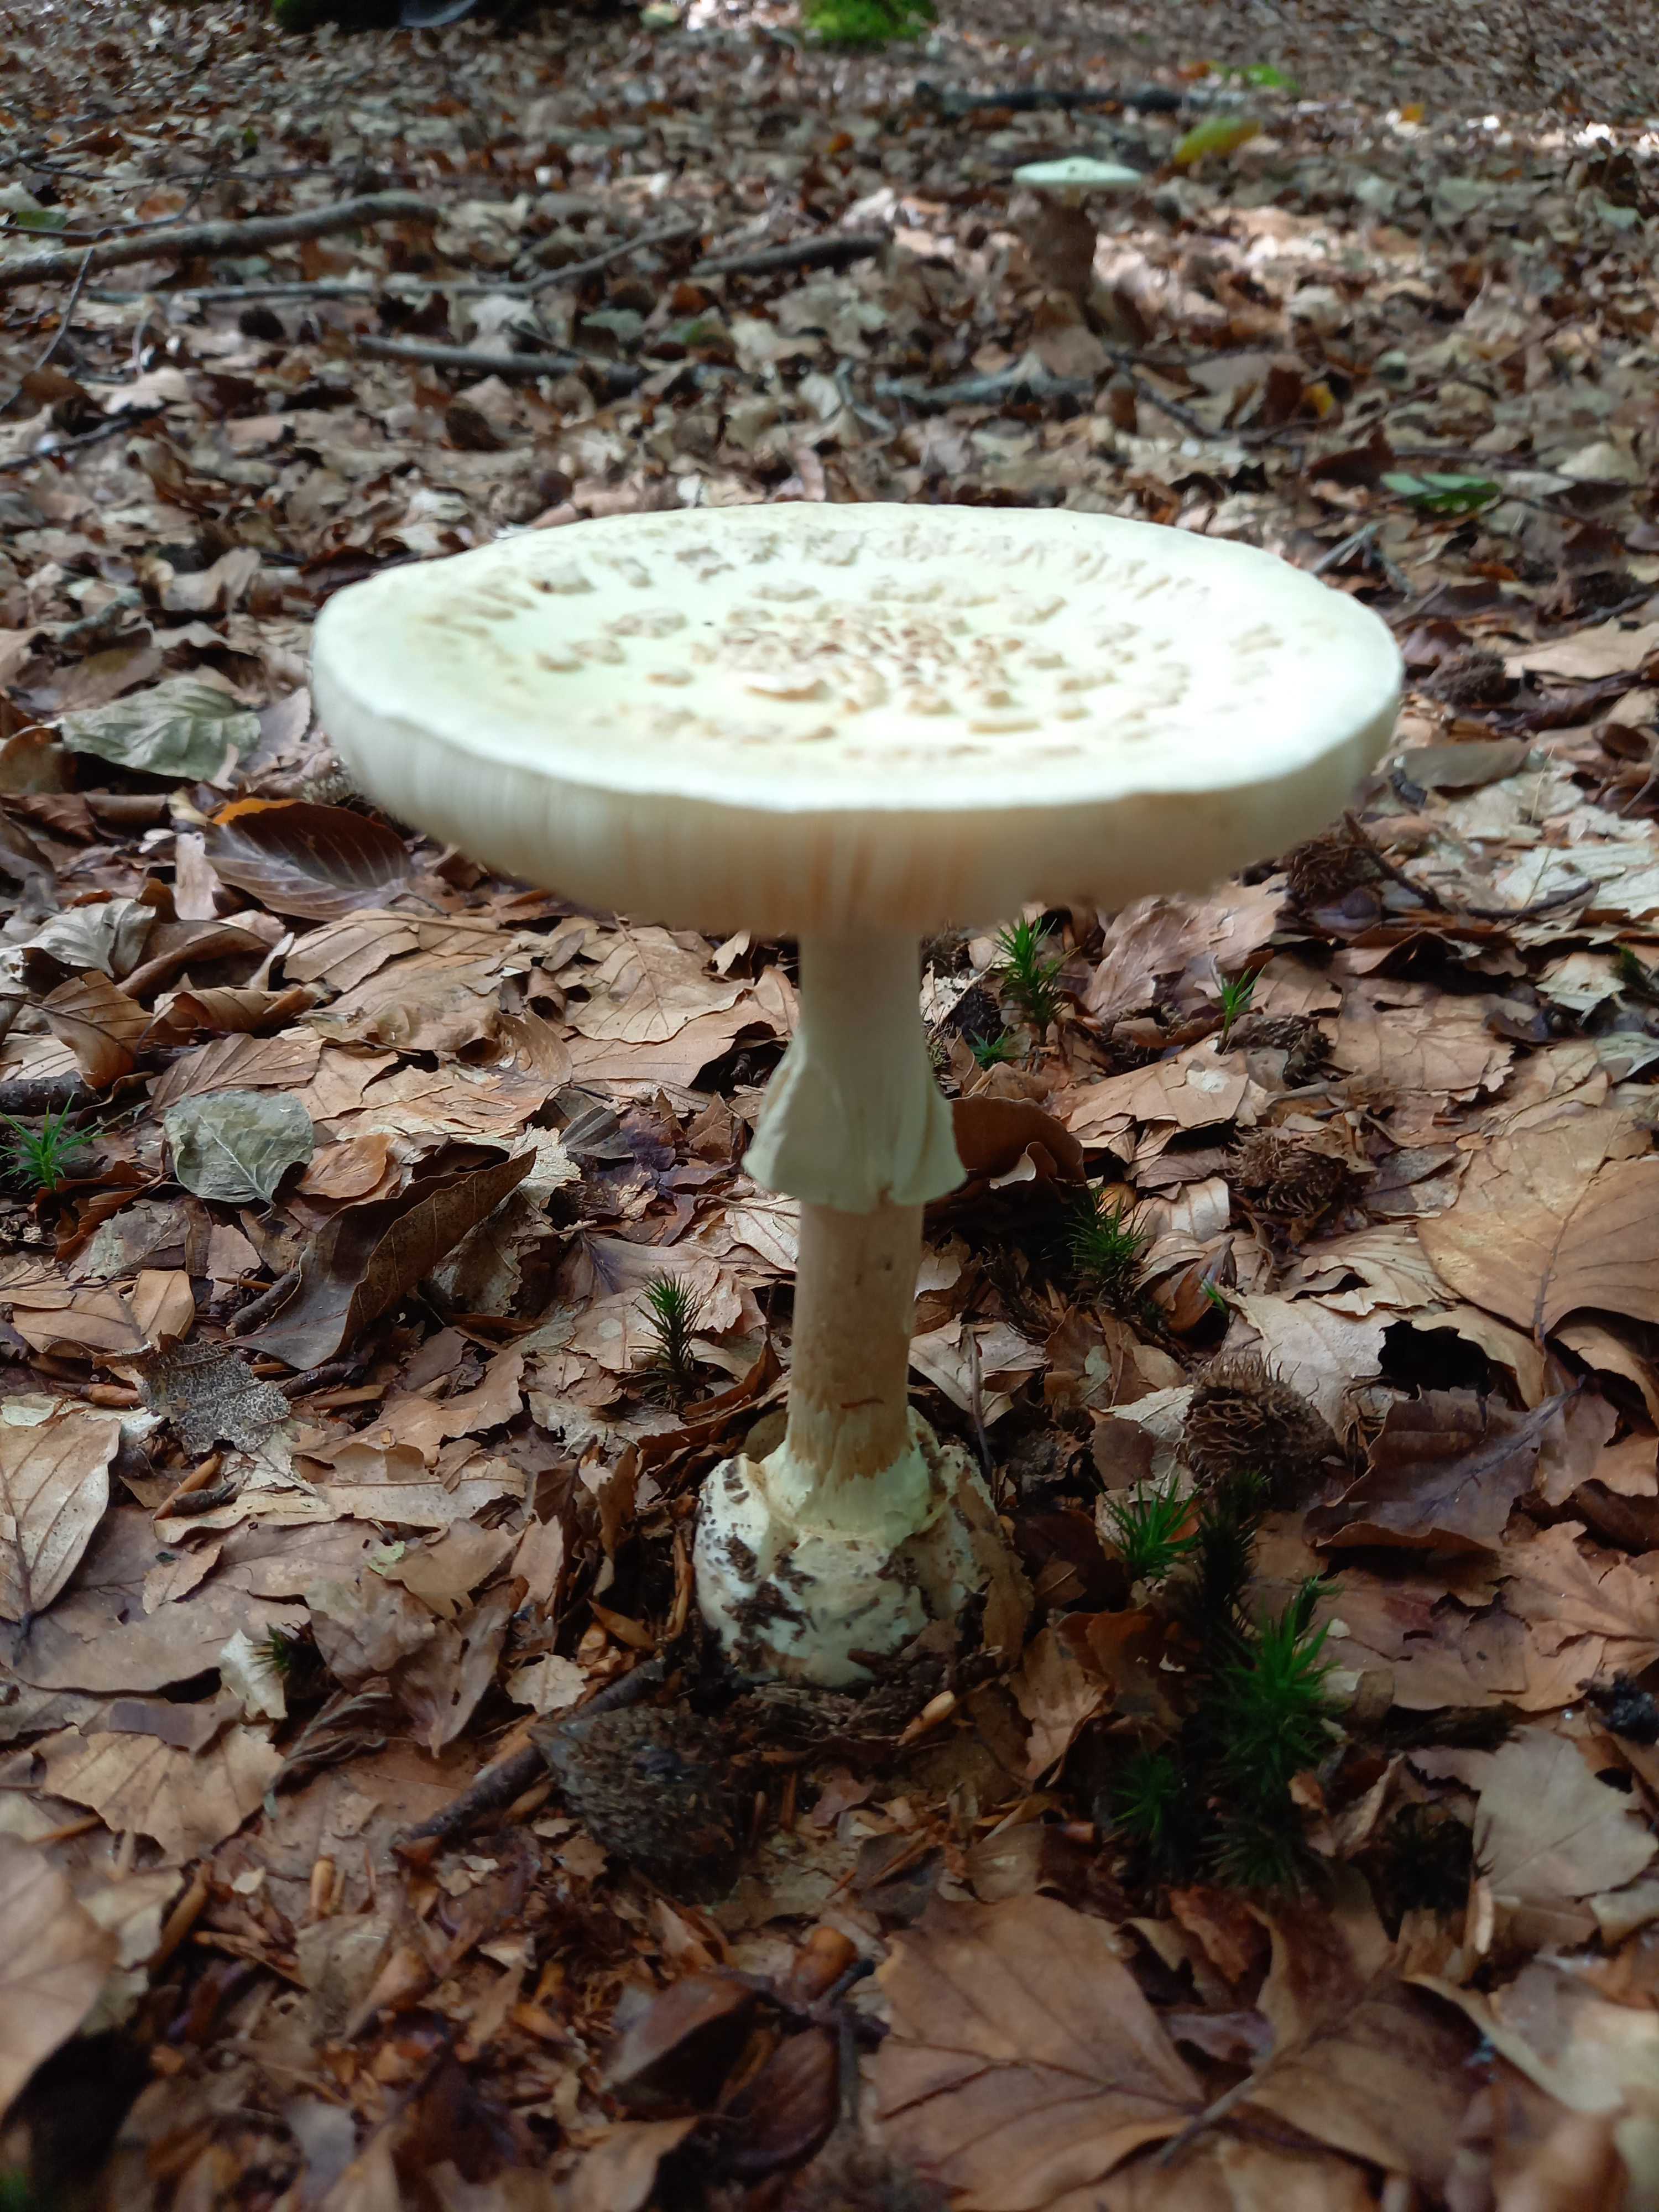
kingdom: Fungi
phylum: Basidiomycota
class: Agaricomycetes
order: Agaricales
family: Amanitaceae
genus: Amanita
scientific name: Amanita citrina
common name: kugleknoldet fluesvamp
